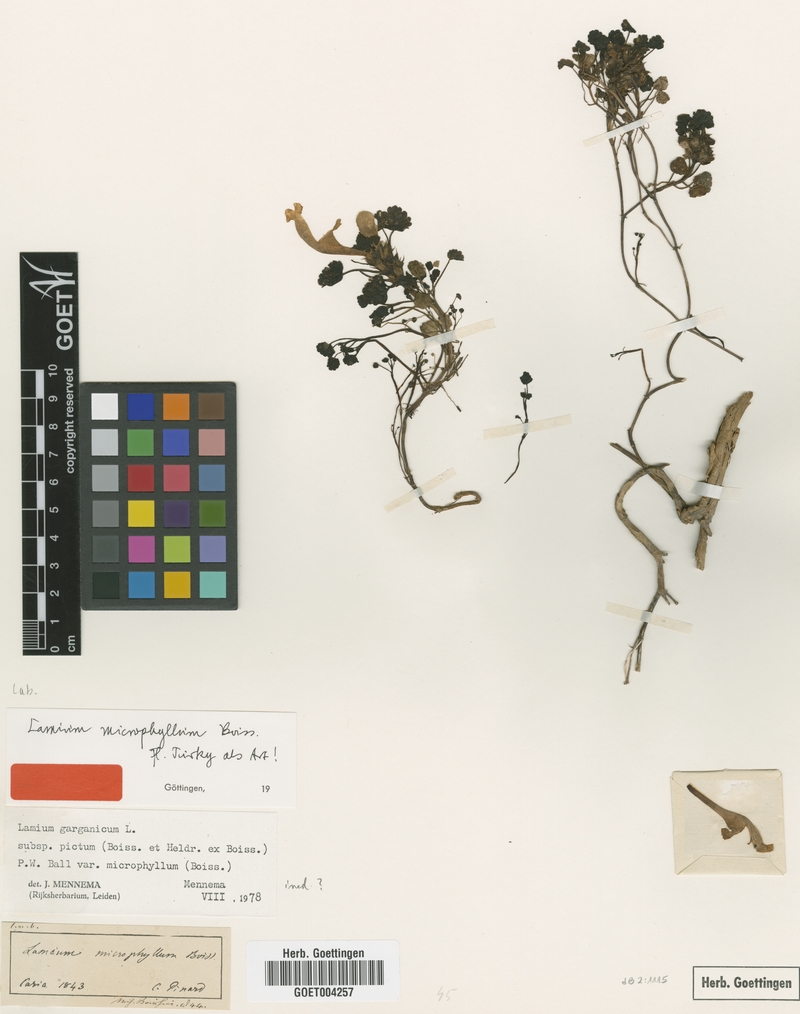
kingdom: Plantae
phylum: Tracheophyta
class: Magnoliopsida
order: Lamiales
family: Lamiaceae
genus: Lamium
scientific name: Lamium garganicum
